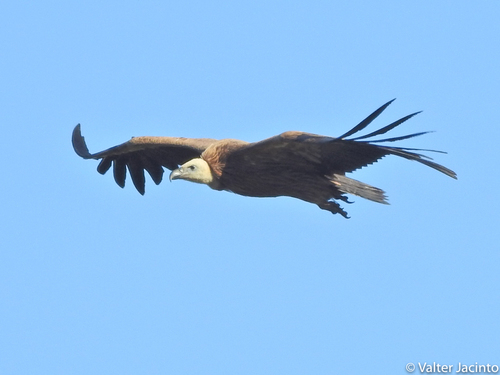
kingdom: Animalia
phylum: Chordata
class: Aves
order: Accipitriformes
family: Accipitridae
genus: Gyps
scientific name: Gyps fulvus
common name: Griffon vulture
